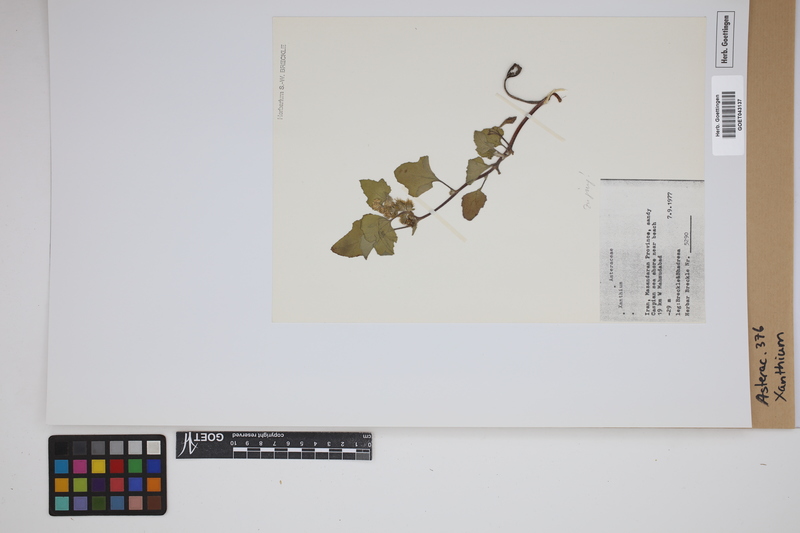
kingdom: Plantae
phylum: Tracheophyta
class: Magnoliopsida
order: Asterales
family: Asteraceae
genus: Xanthium
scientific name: Xanthium strumarium
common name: Rough cocklebur
